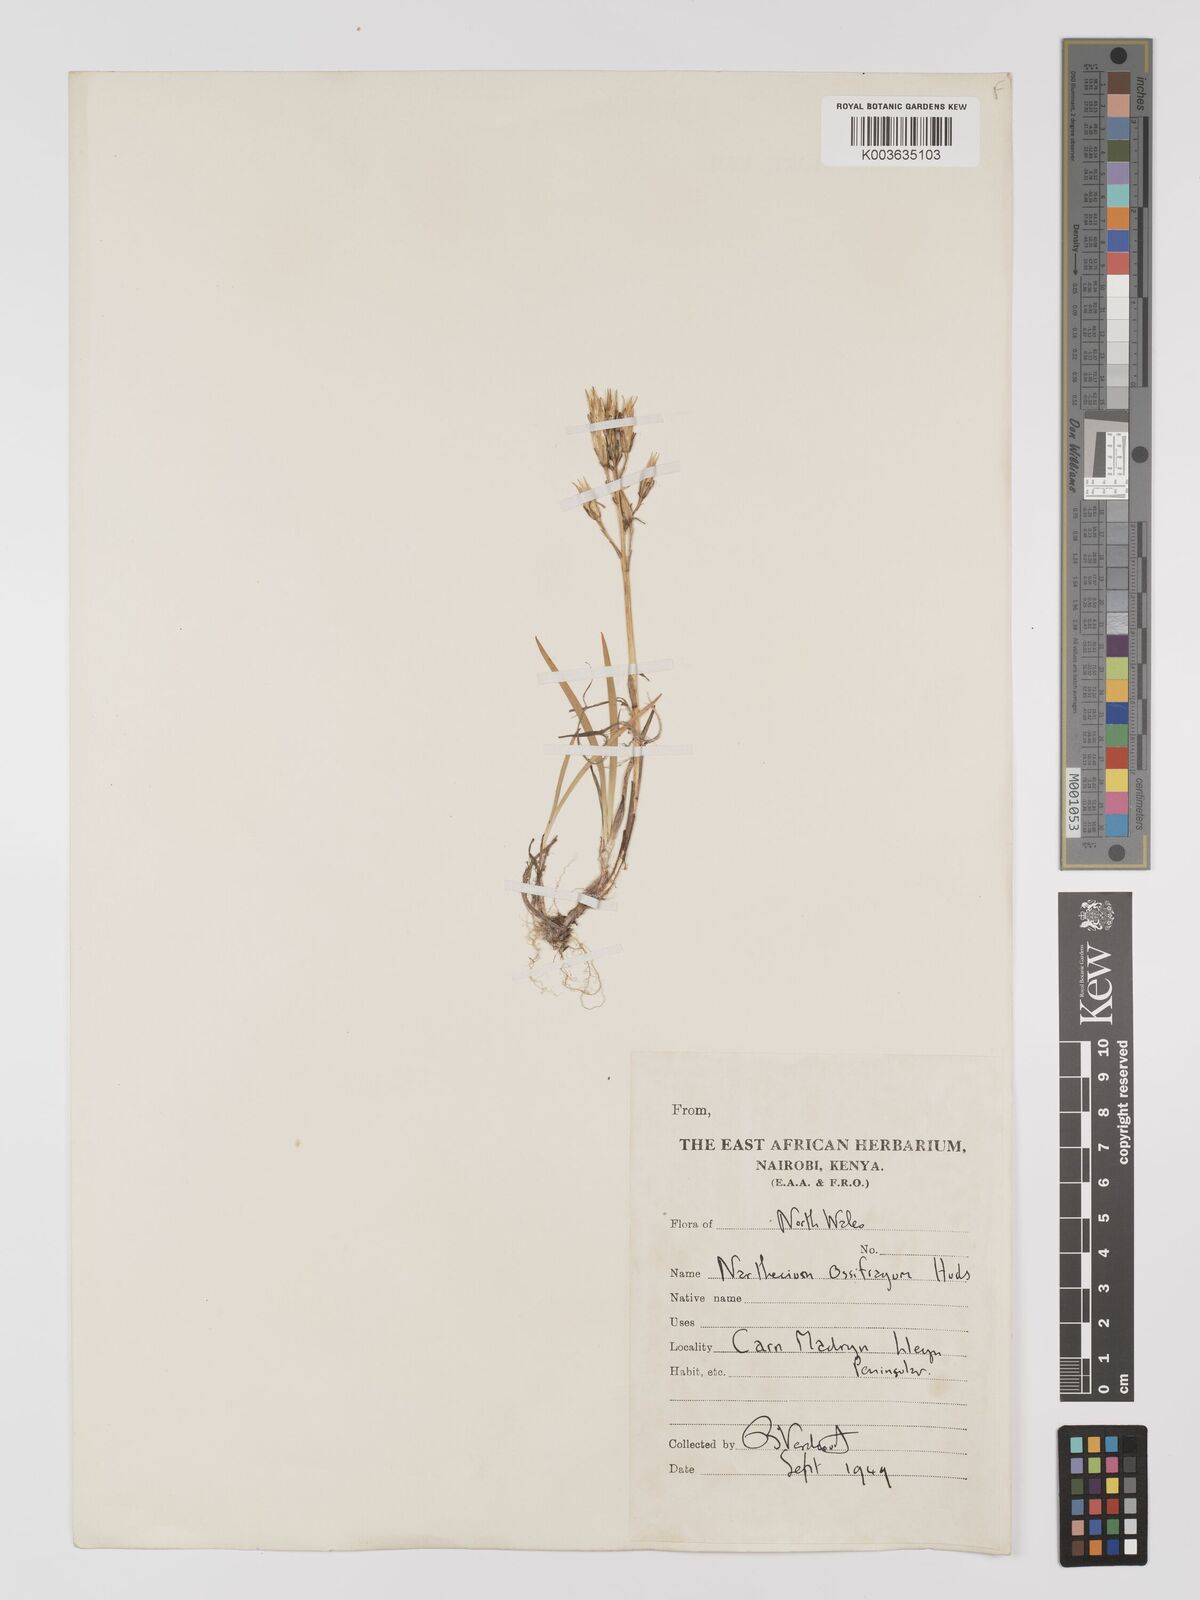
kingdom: Plantae
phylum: Tracheophyta
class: Liliopsida
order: Dioscoreales
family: Nartheciaceae
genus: Narthecium
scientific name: Narthecium
